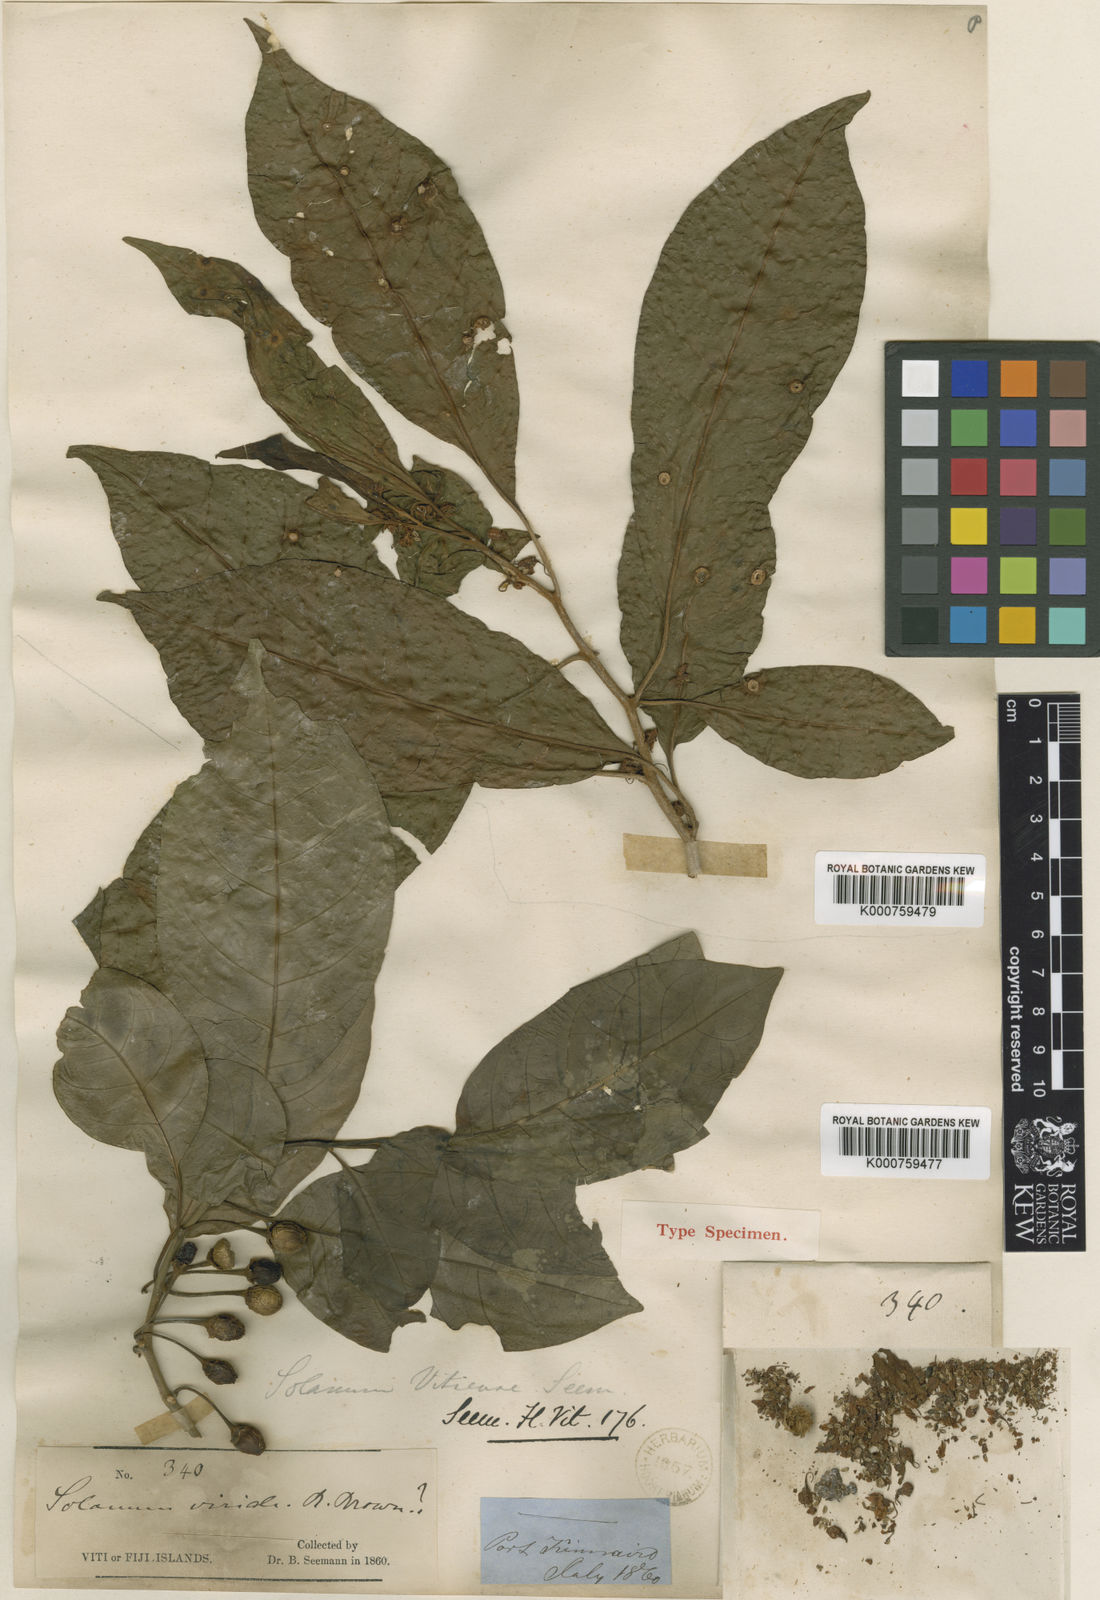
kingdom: Plantae
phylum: Tracheophyta
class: Magnoliopsida
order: Solanales
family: Solanaceae
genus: Lycianthes
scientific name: Lycianthes vitiensis
